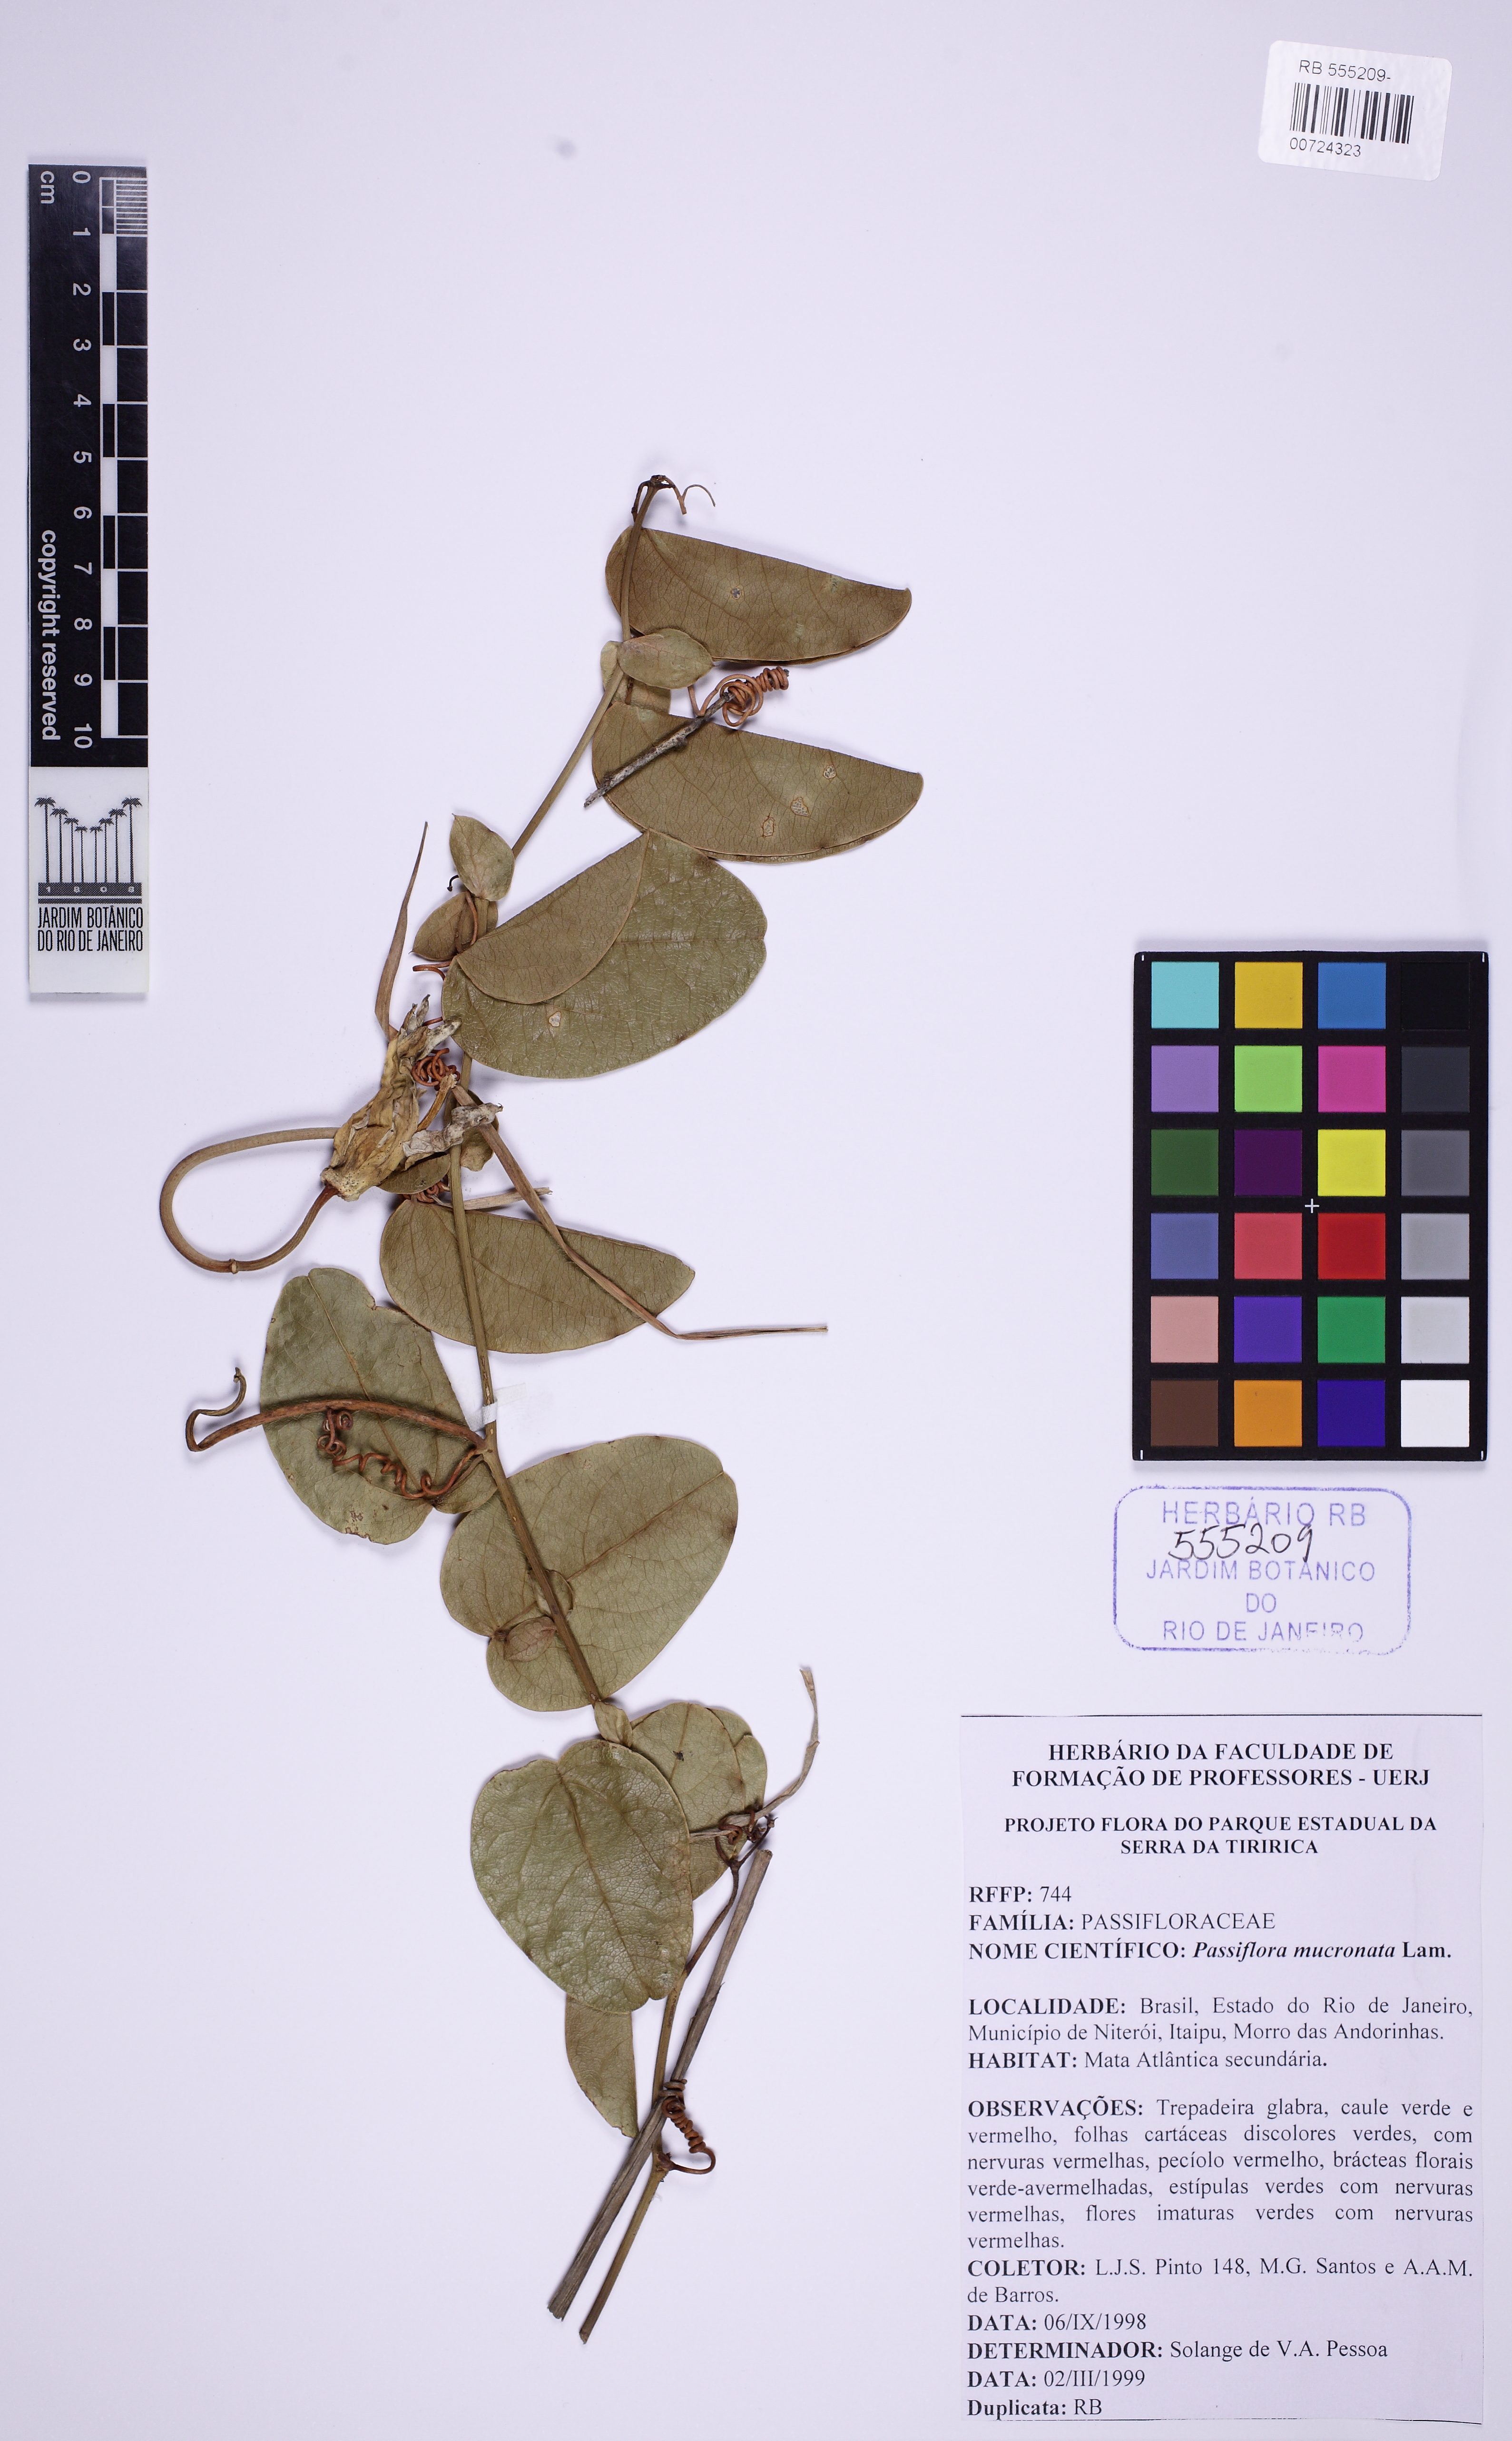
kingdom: Plantae
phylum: Tracheophyta
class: Magnoliopsida
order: Malpighiales
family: Passifloraceae
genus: Passiflora
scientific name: Passiflora mucronata
